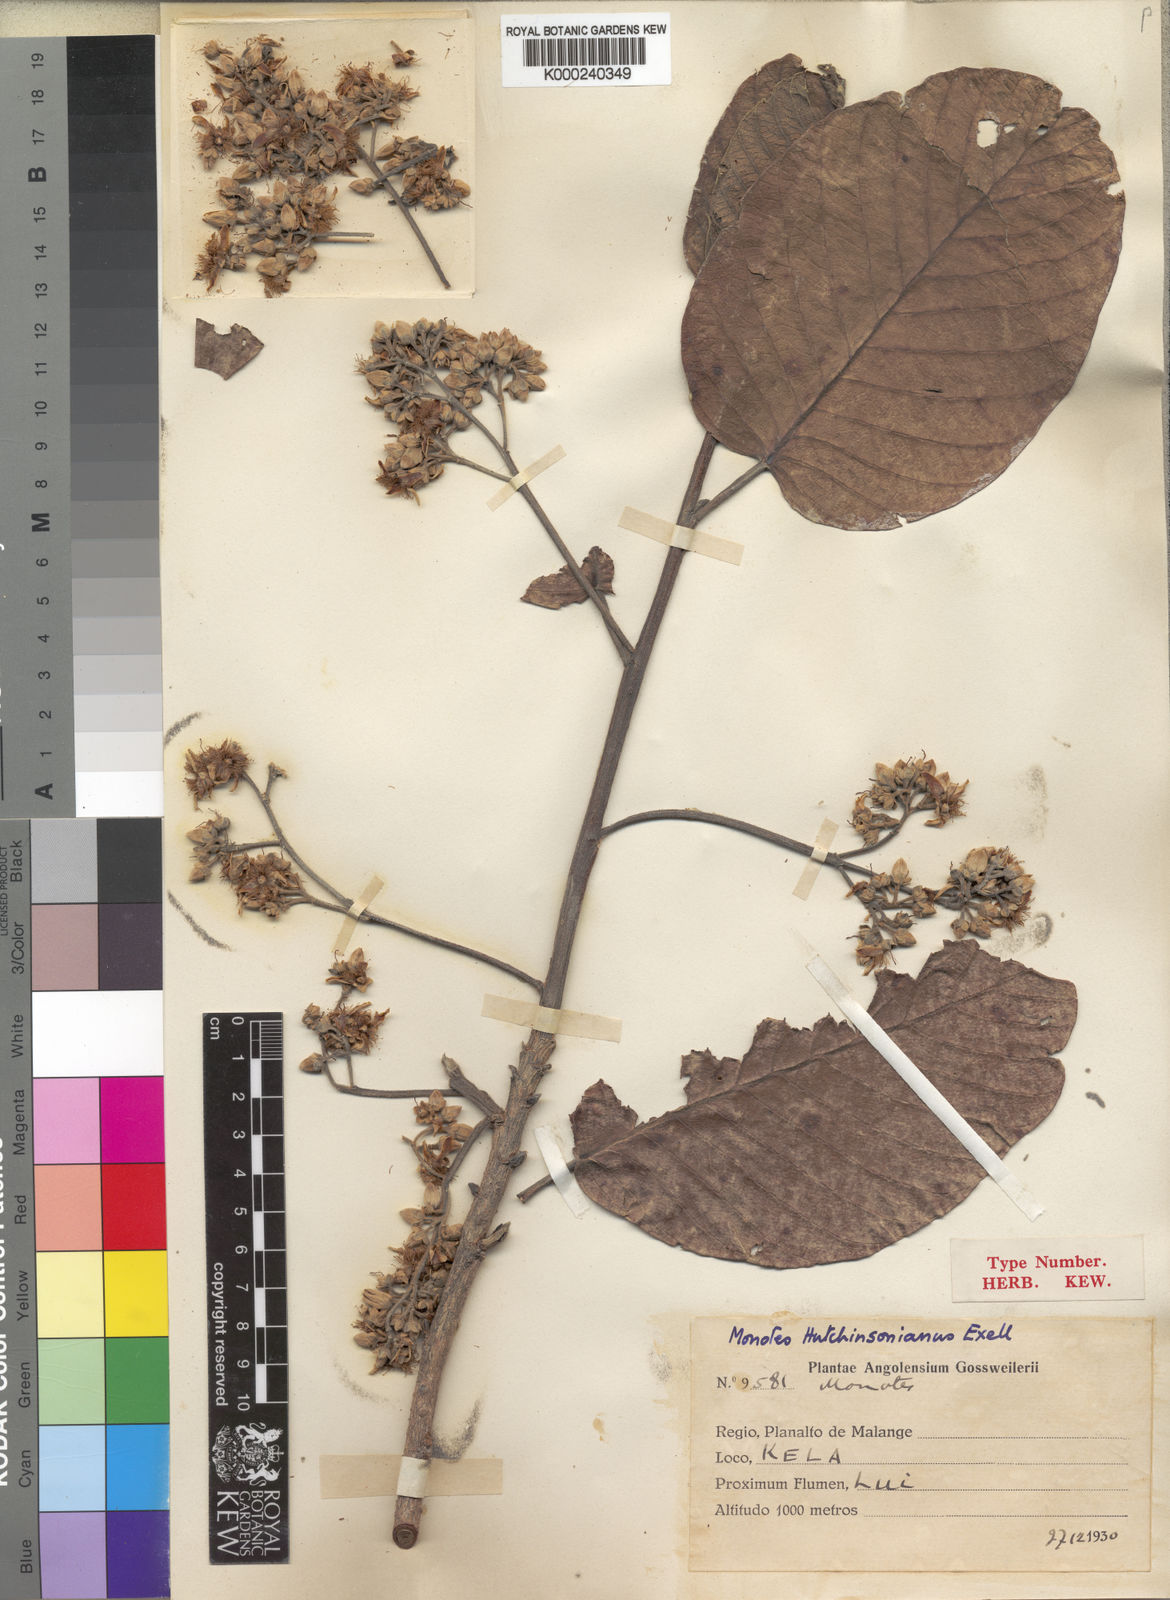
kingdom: Plantae
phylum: Tracheophyta
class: Magnoliopsida
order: Malvales
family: Dipterocarpaceae
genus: Monotes
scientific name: Monotes adenophyllus
